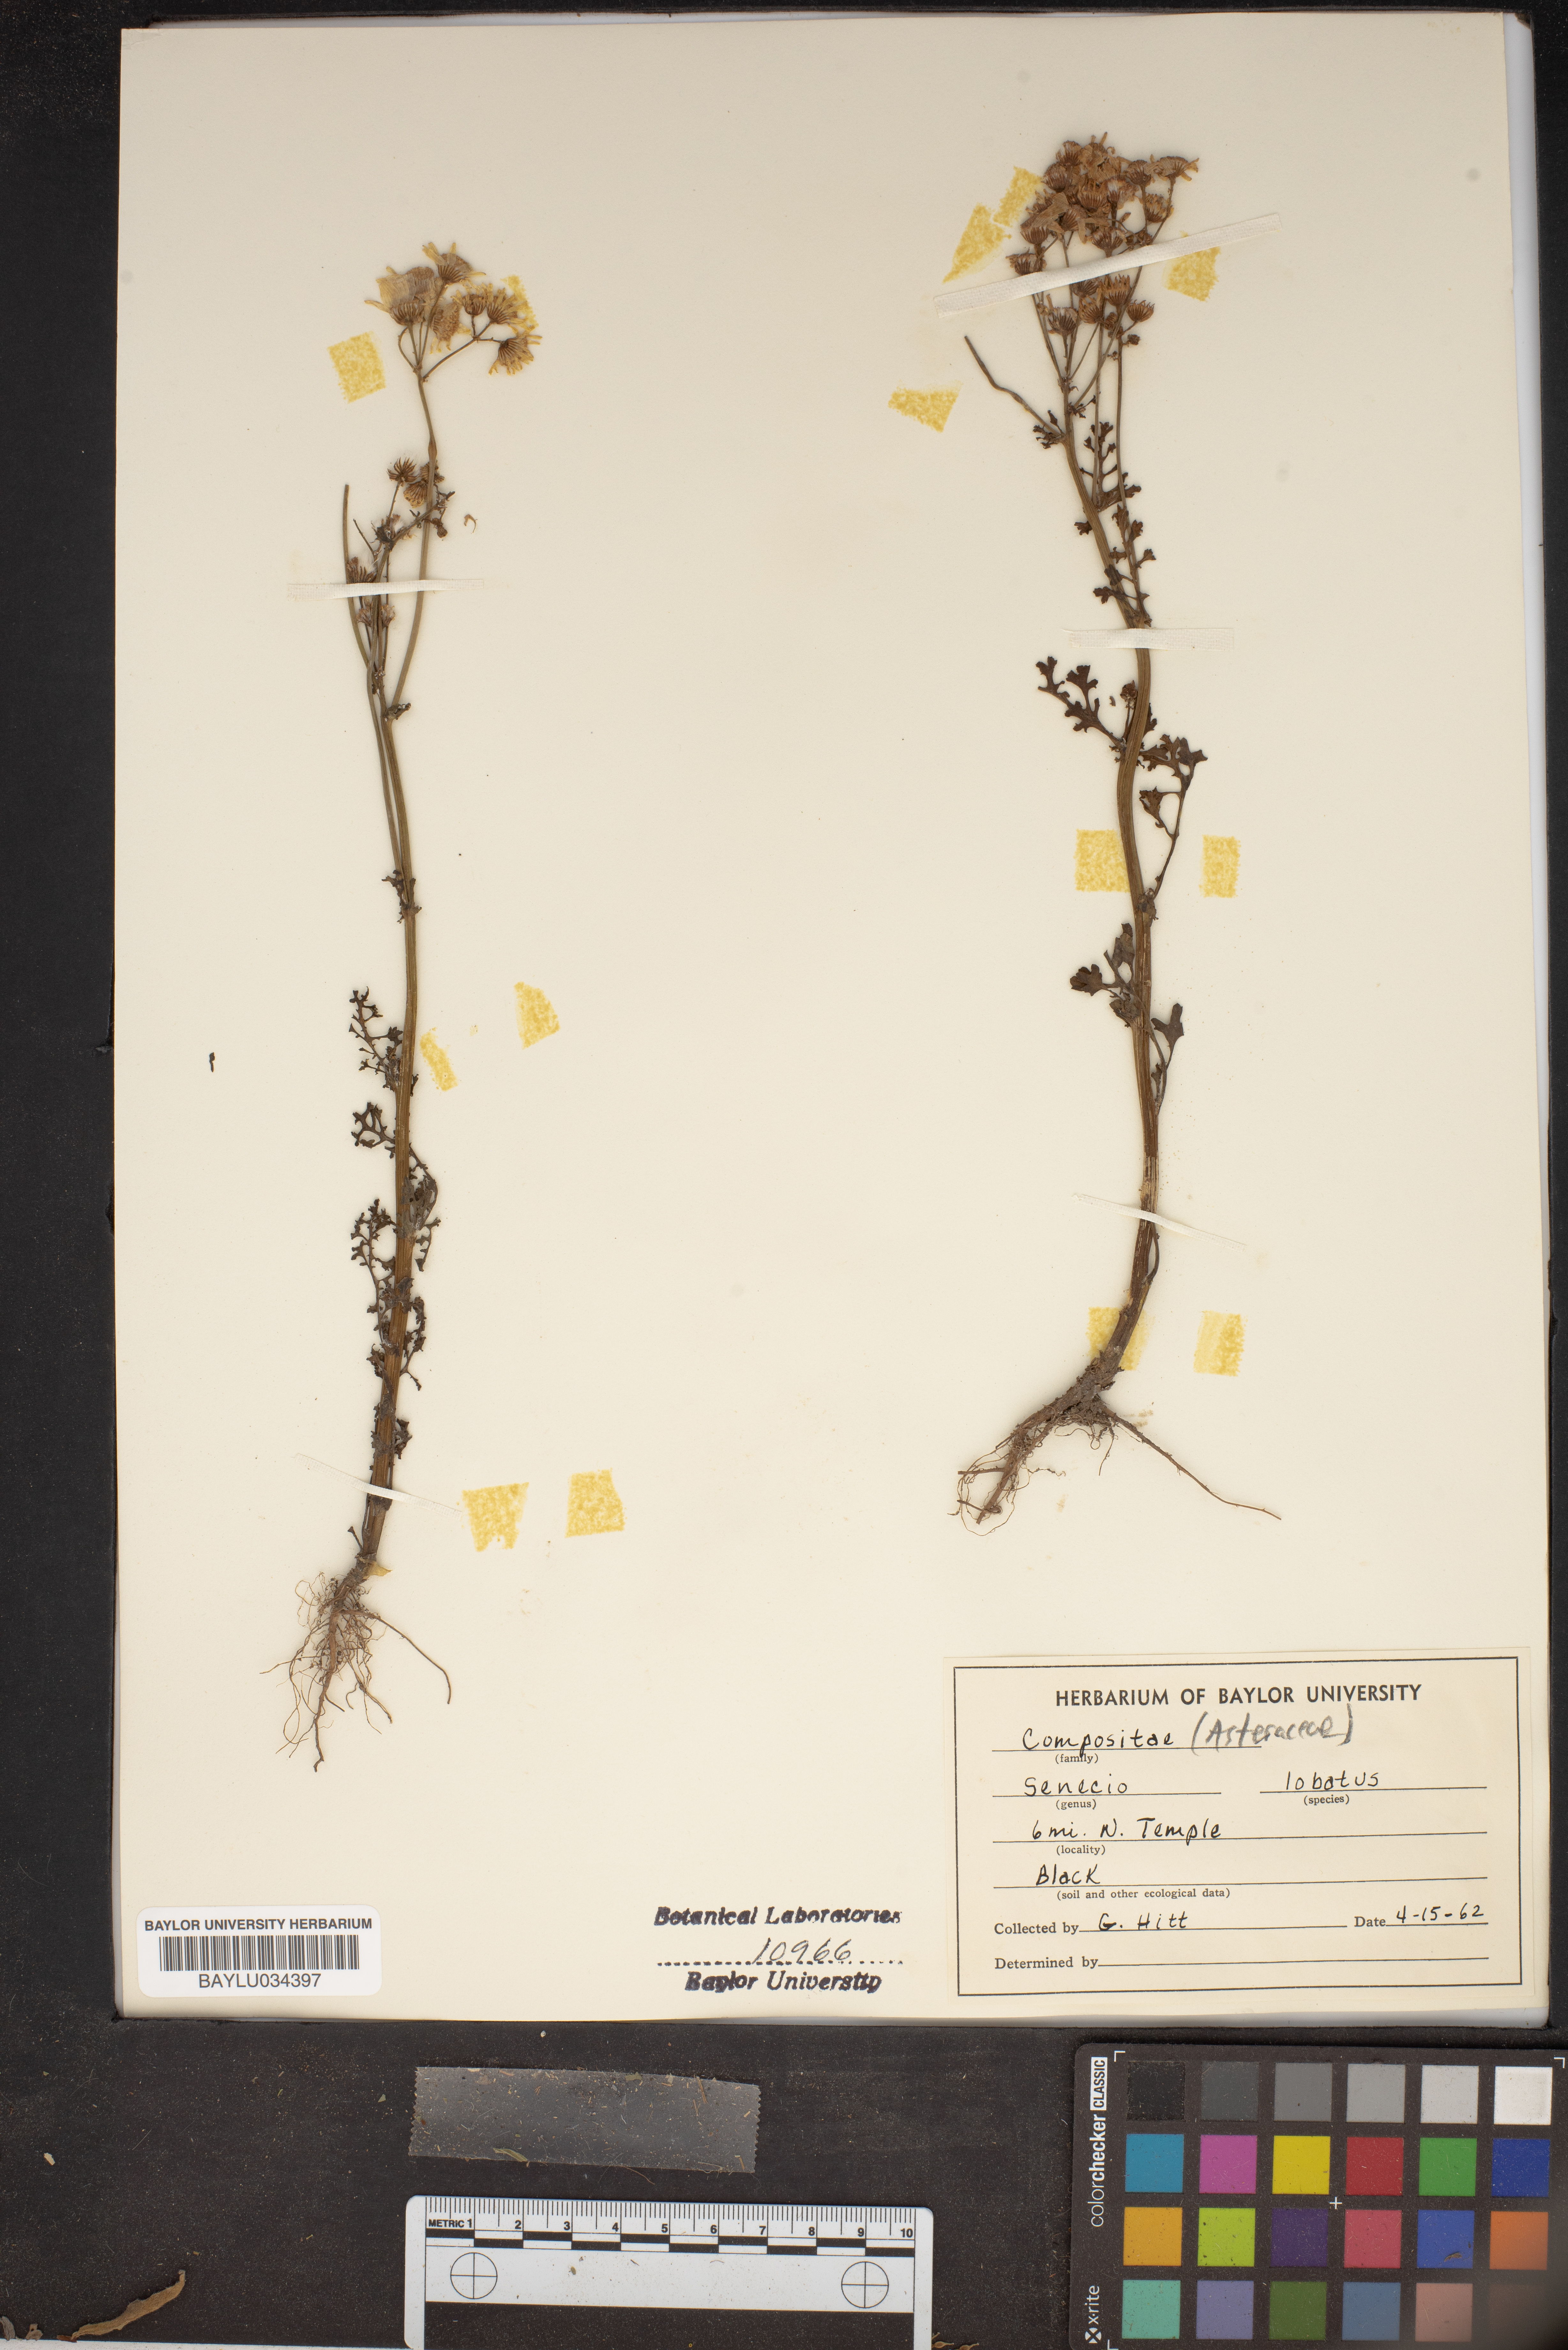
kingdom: Plantae
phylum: Tracheophyta
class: Magnoliopsida
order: Asterales
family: Asteraceae
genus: Packera
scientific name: Packera glabella
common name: Butterweed
